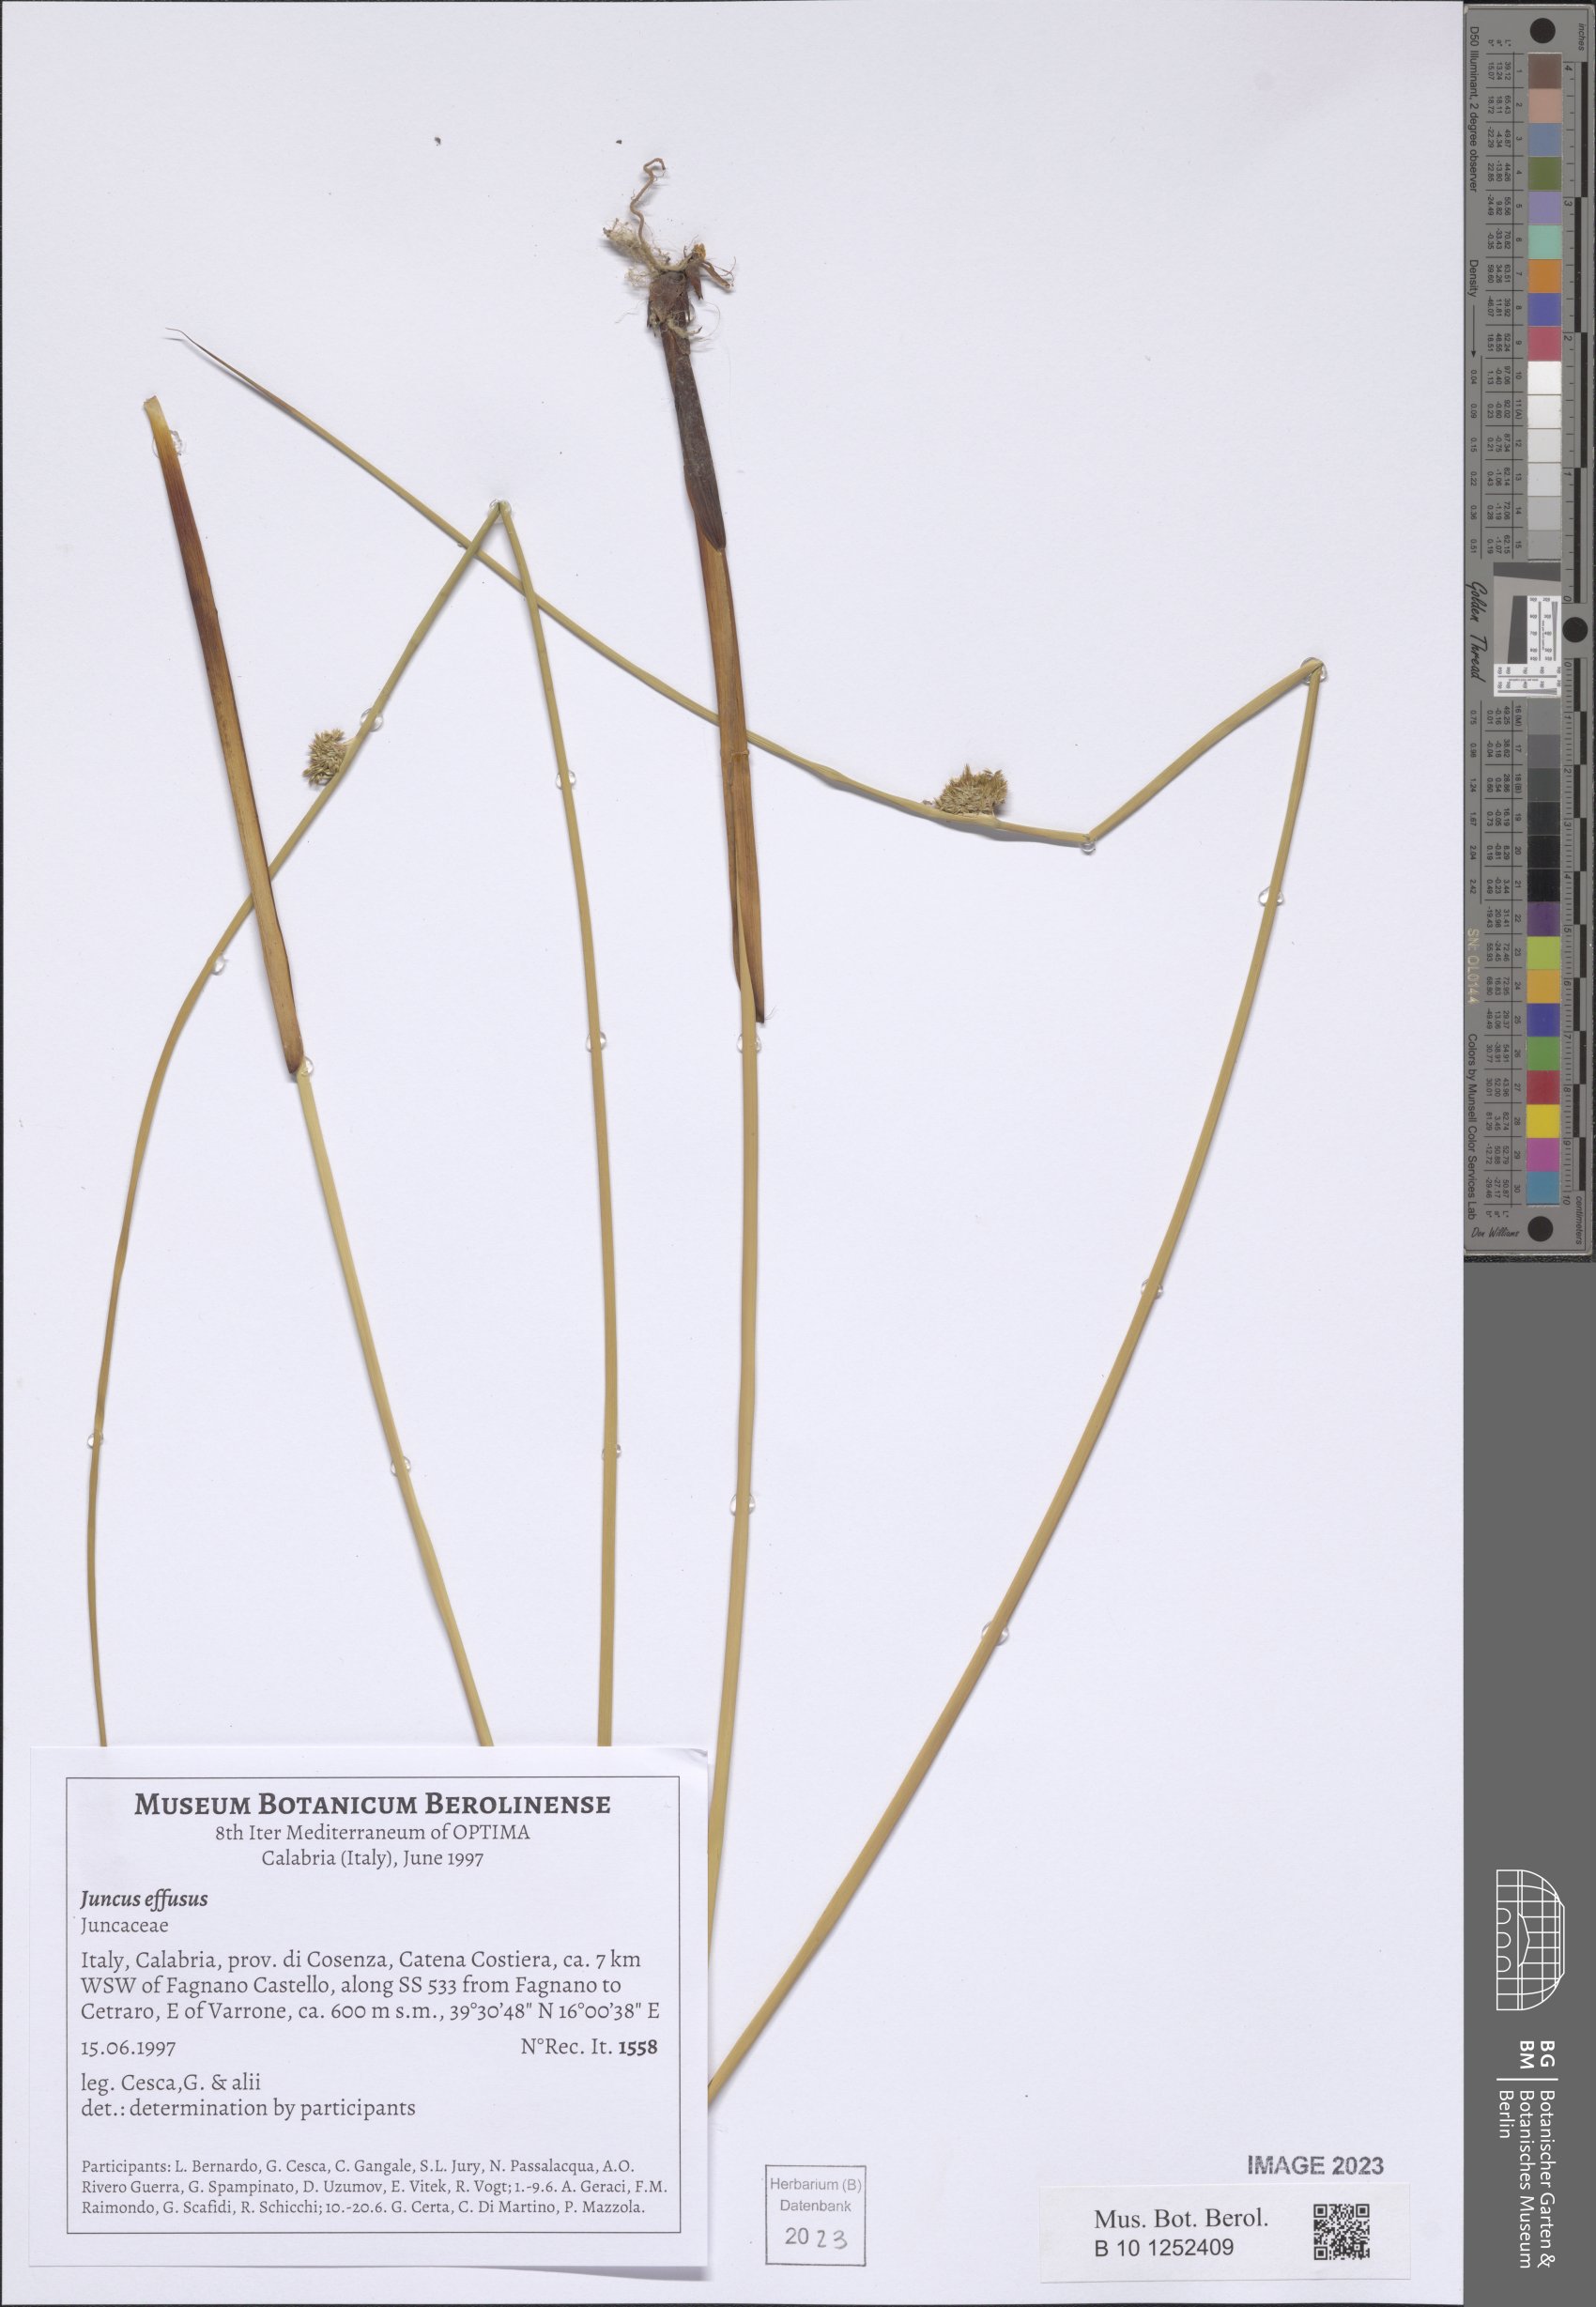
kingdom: Plantae
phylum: Tracheophyta
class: Liliopsida
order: Poales
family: Juncaceae
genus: Juncus
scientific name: Juncus effusus
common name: Soft rush
